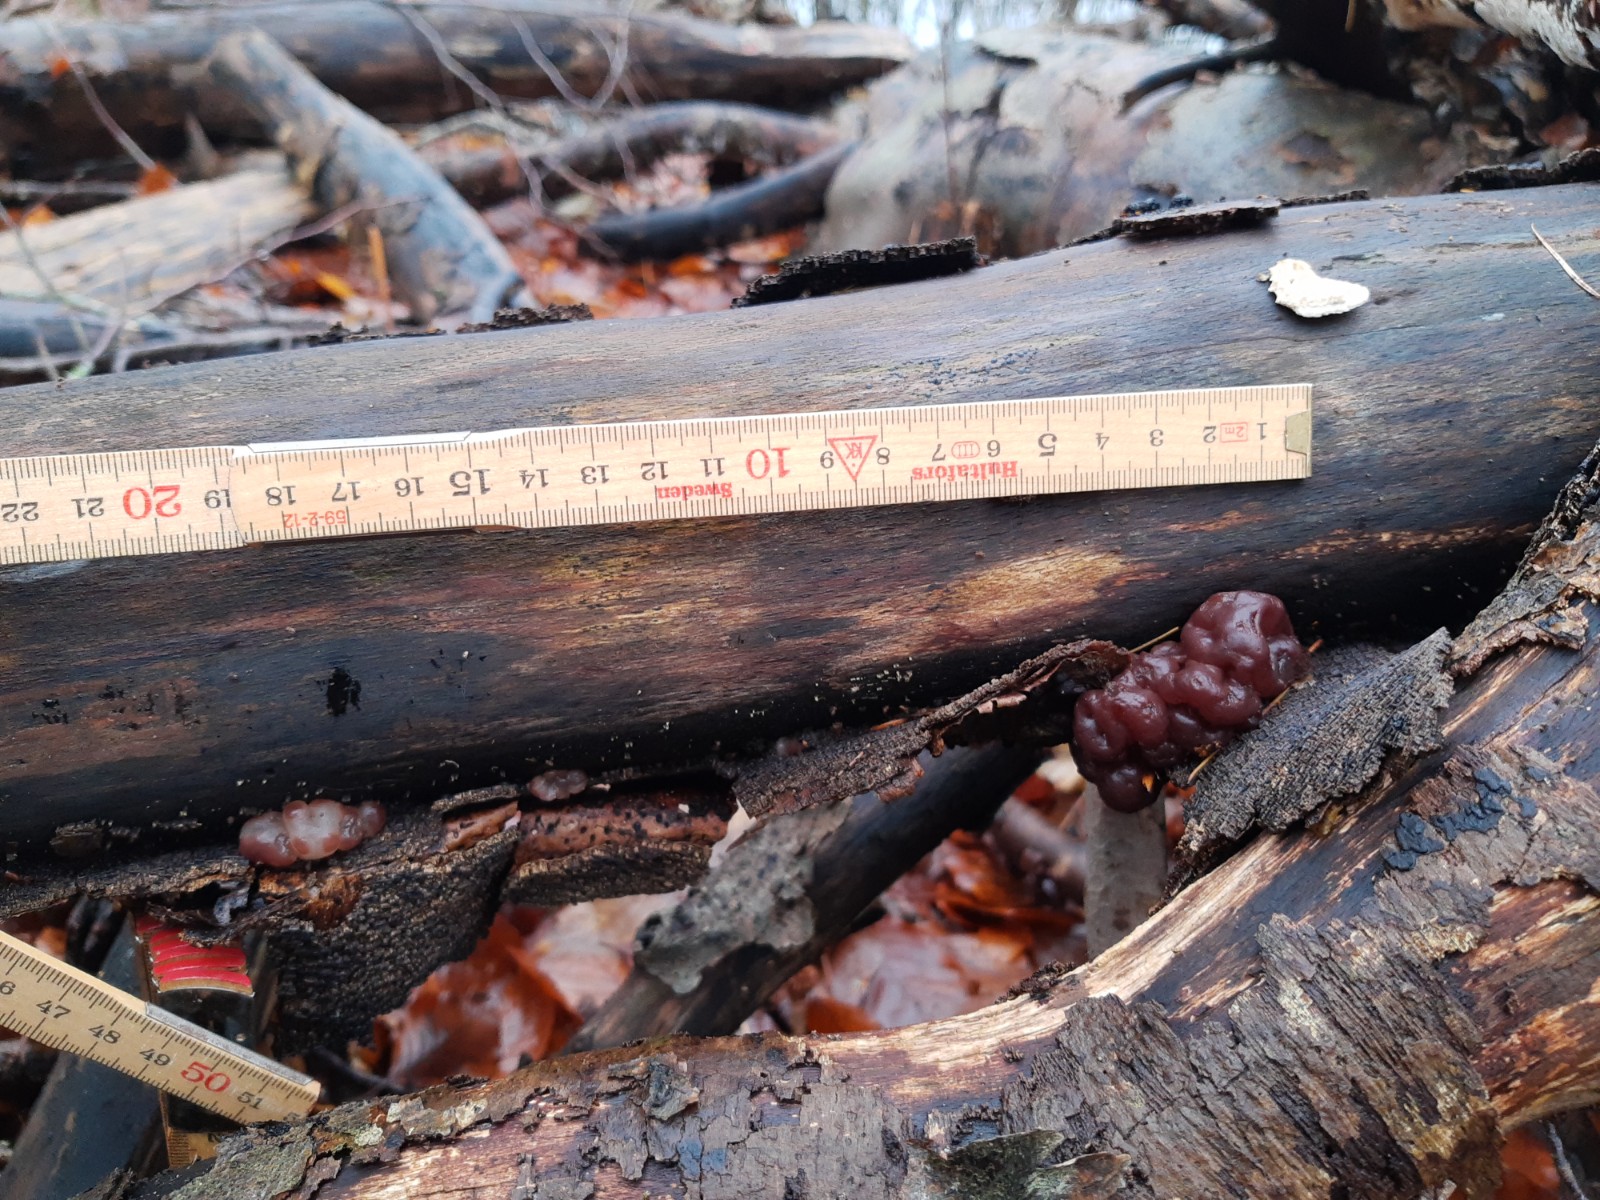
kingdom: Fungi
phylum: Ascomycota
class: Leotiomycetes
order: Helotiales
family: Gelatinodiscaceae
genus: Ascotremella
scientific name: Ascotremella faginea
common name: hjerne-bævreskive
